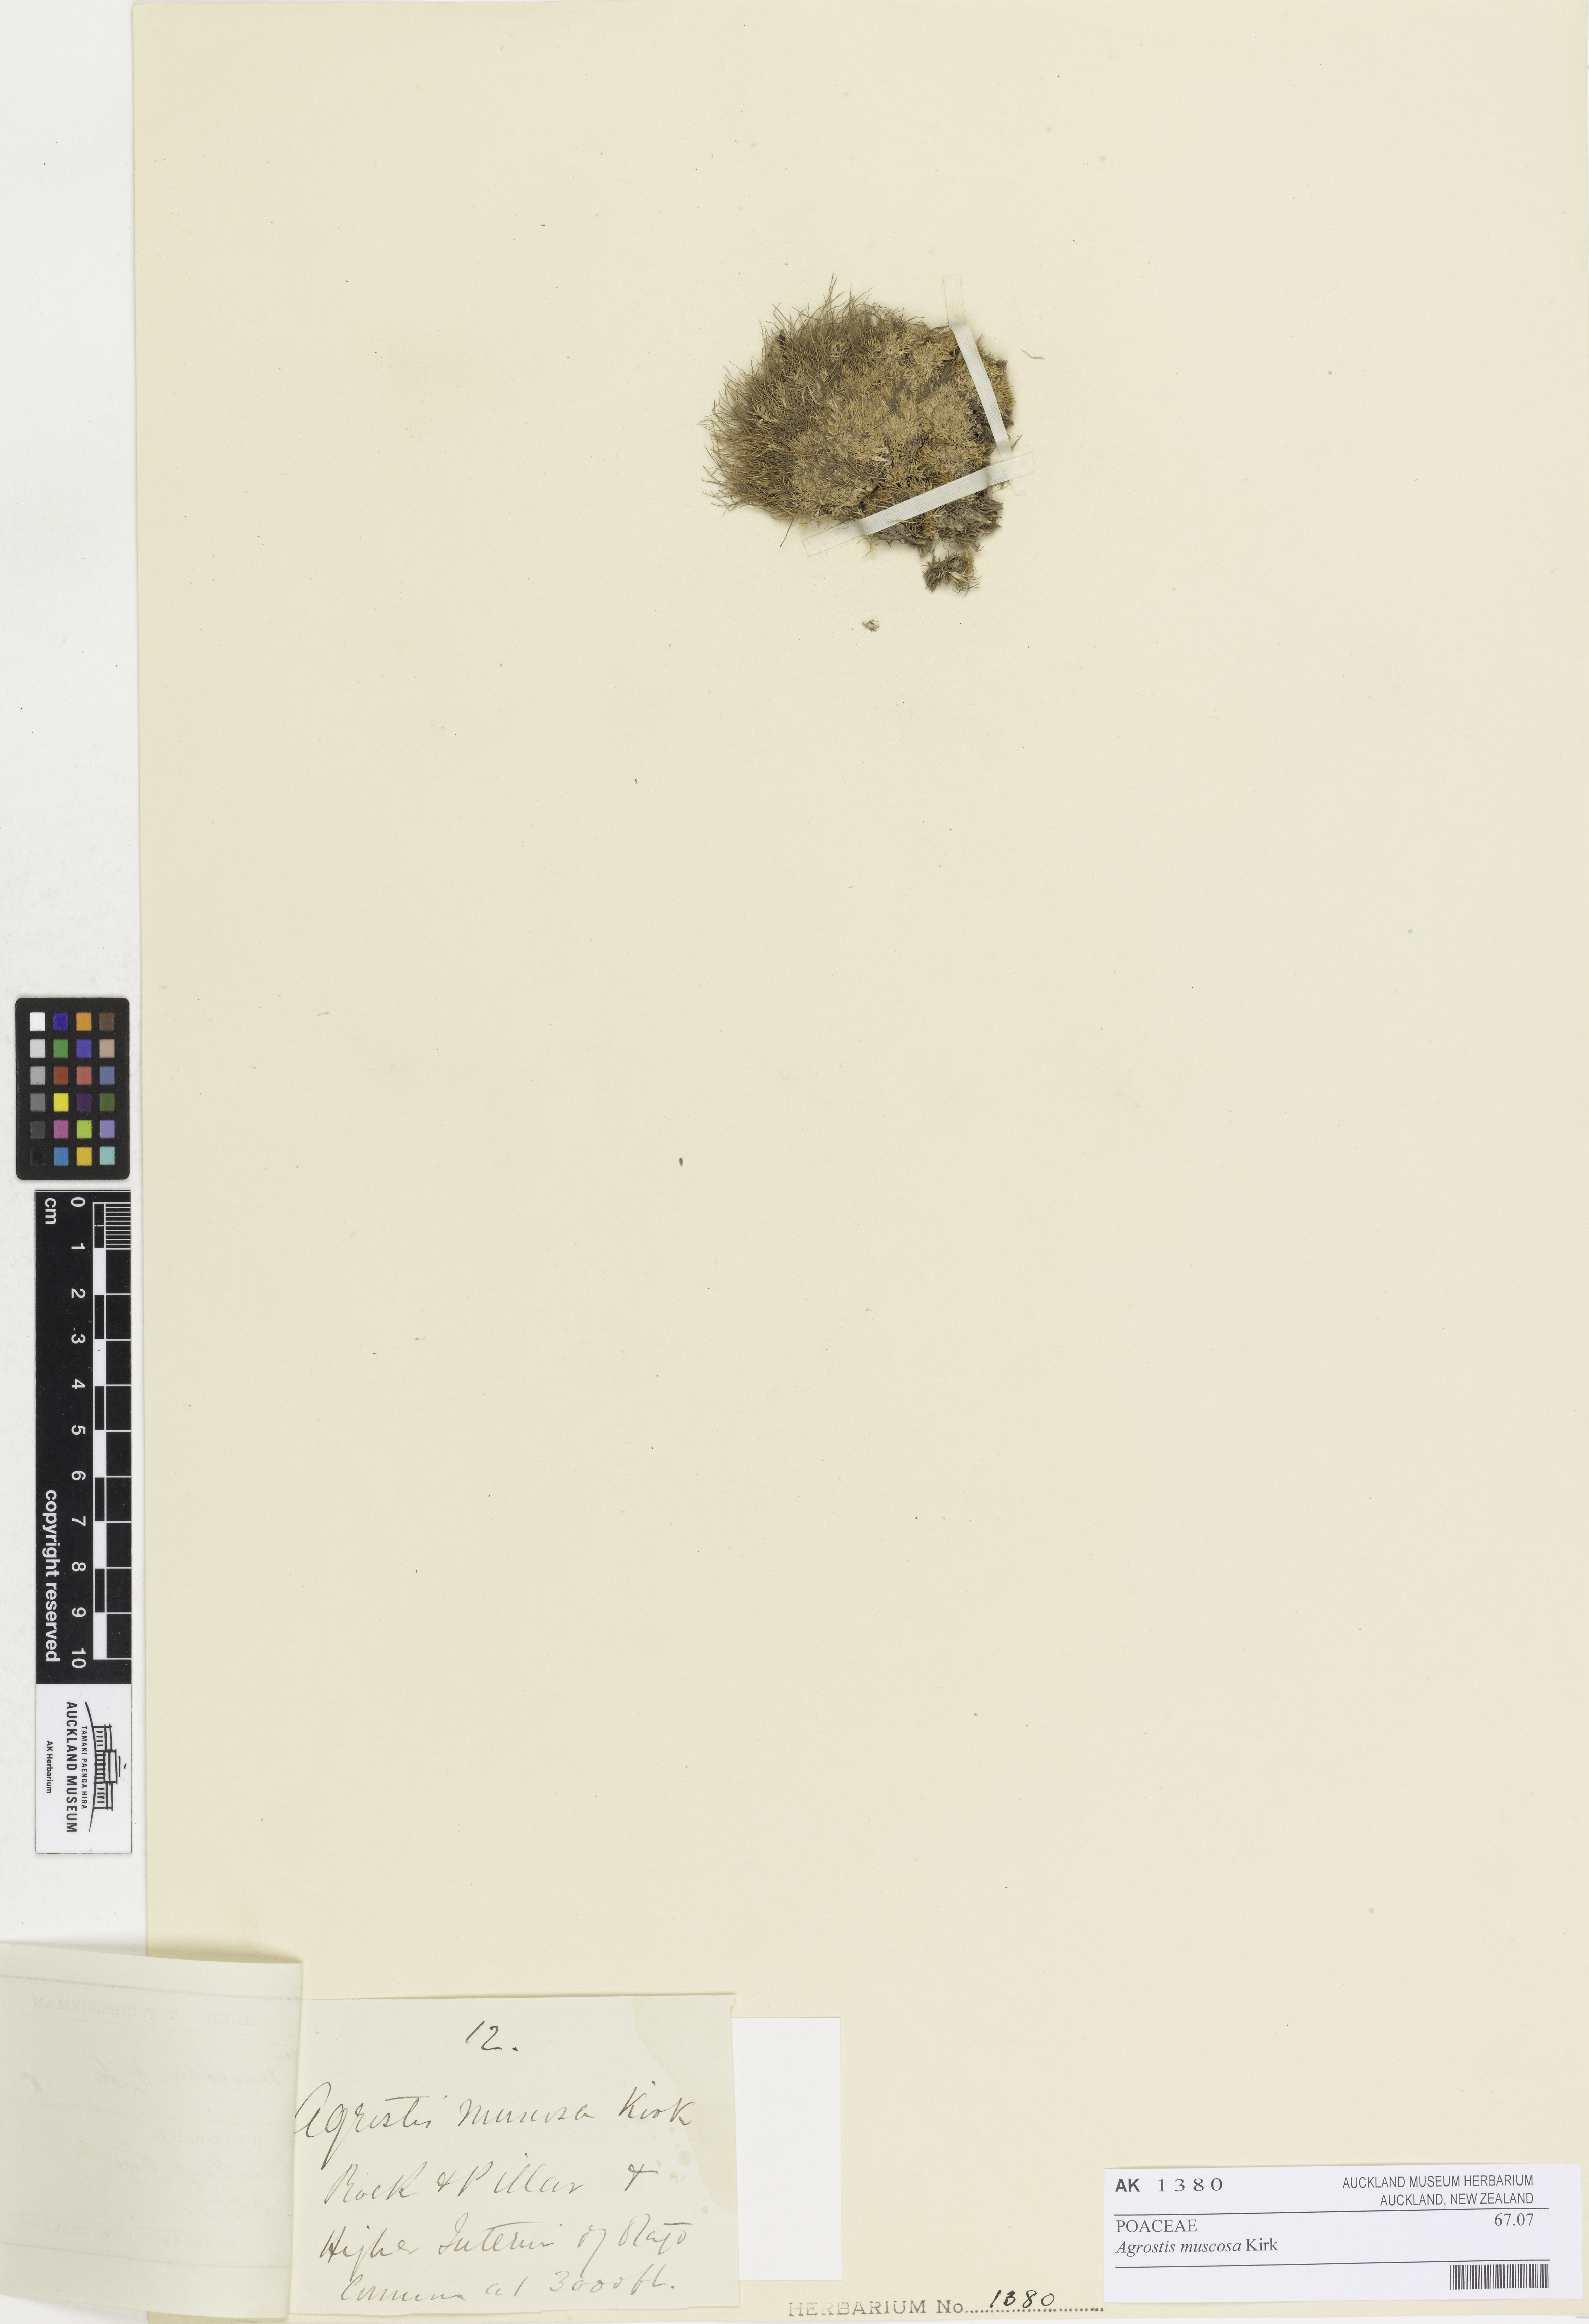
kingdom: Plantae
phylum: Tracheophyta
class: Liliopsida
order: Poales
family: Poaceae
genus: Agrostis
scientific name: Agrostis muscosa
